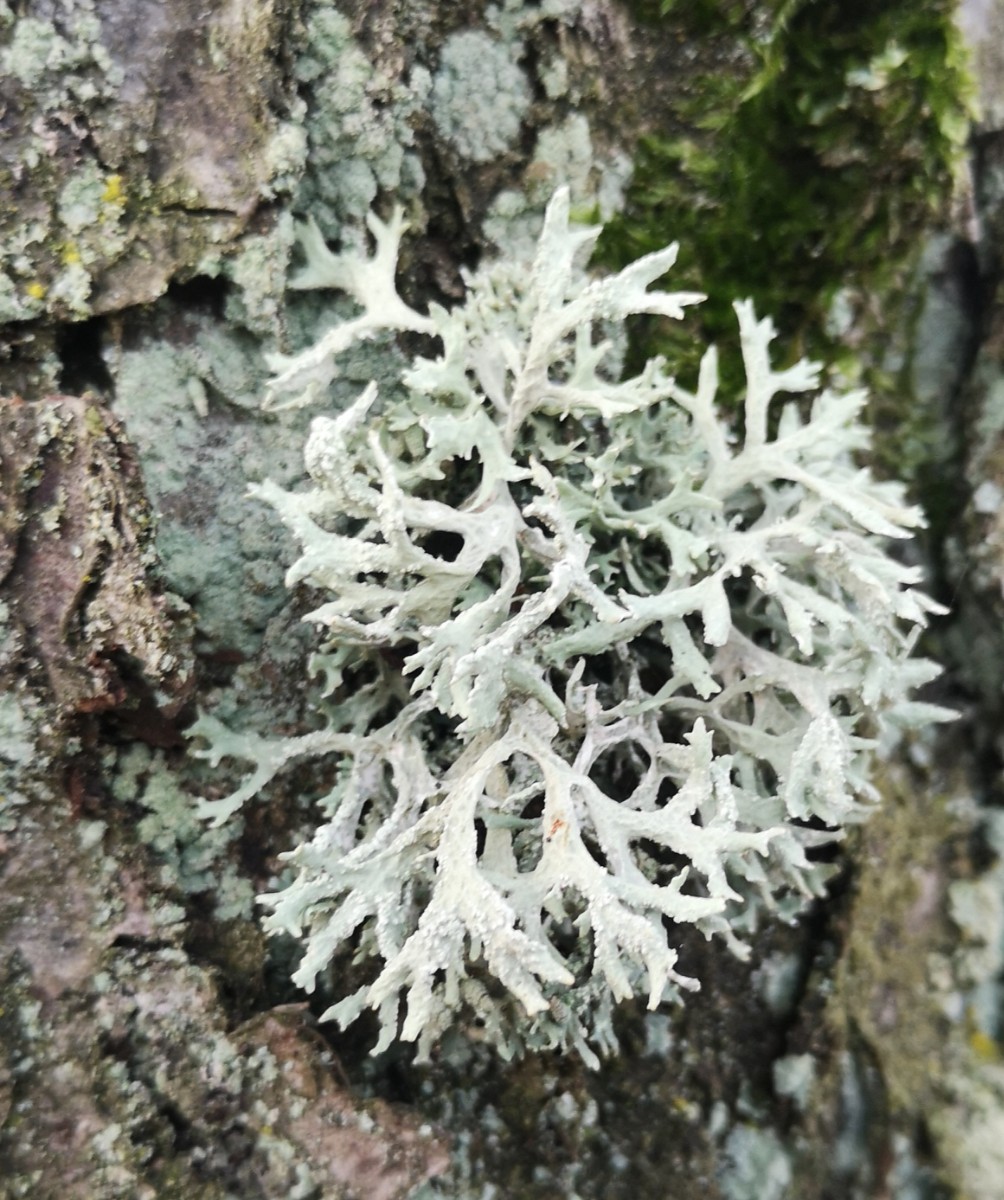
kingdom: Fungi
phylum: Ascomycota
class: Lecanoromycetes
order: Lecanorales
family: Parmeliaceae
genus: Evernia
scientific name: Evernia prunastri
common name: almindelig slåenlav
